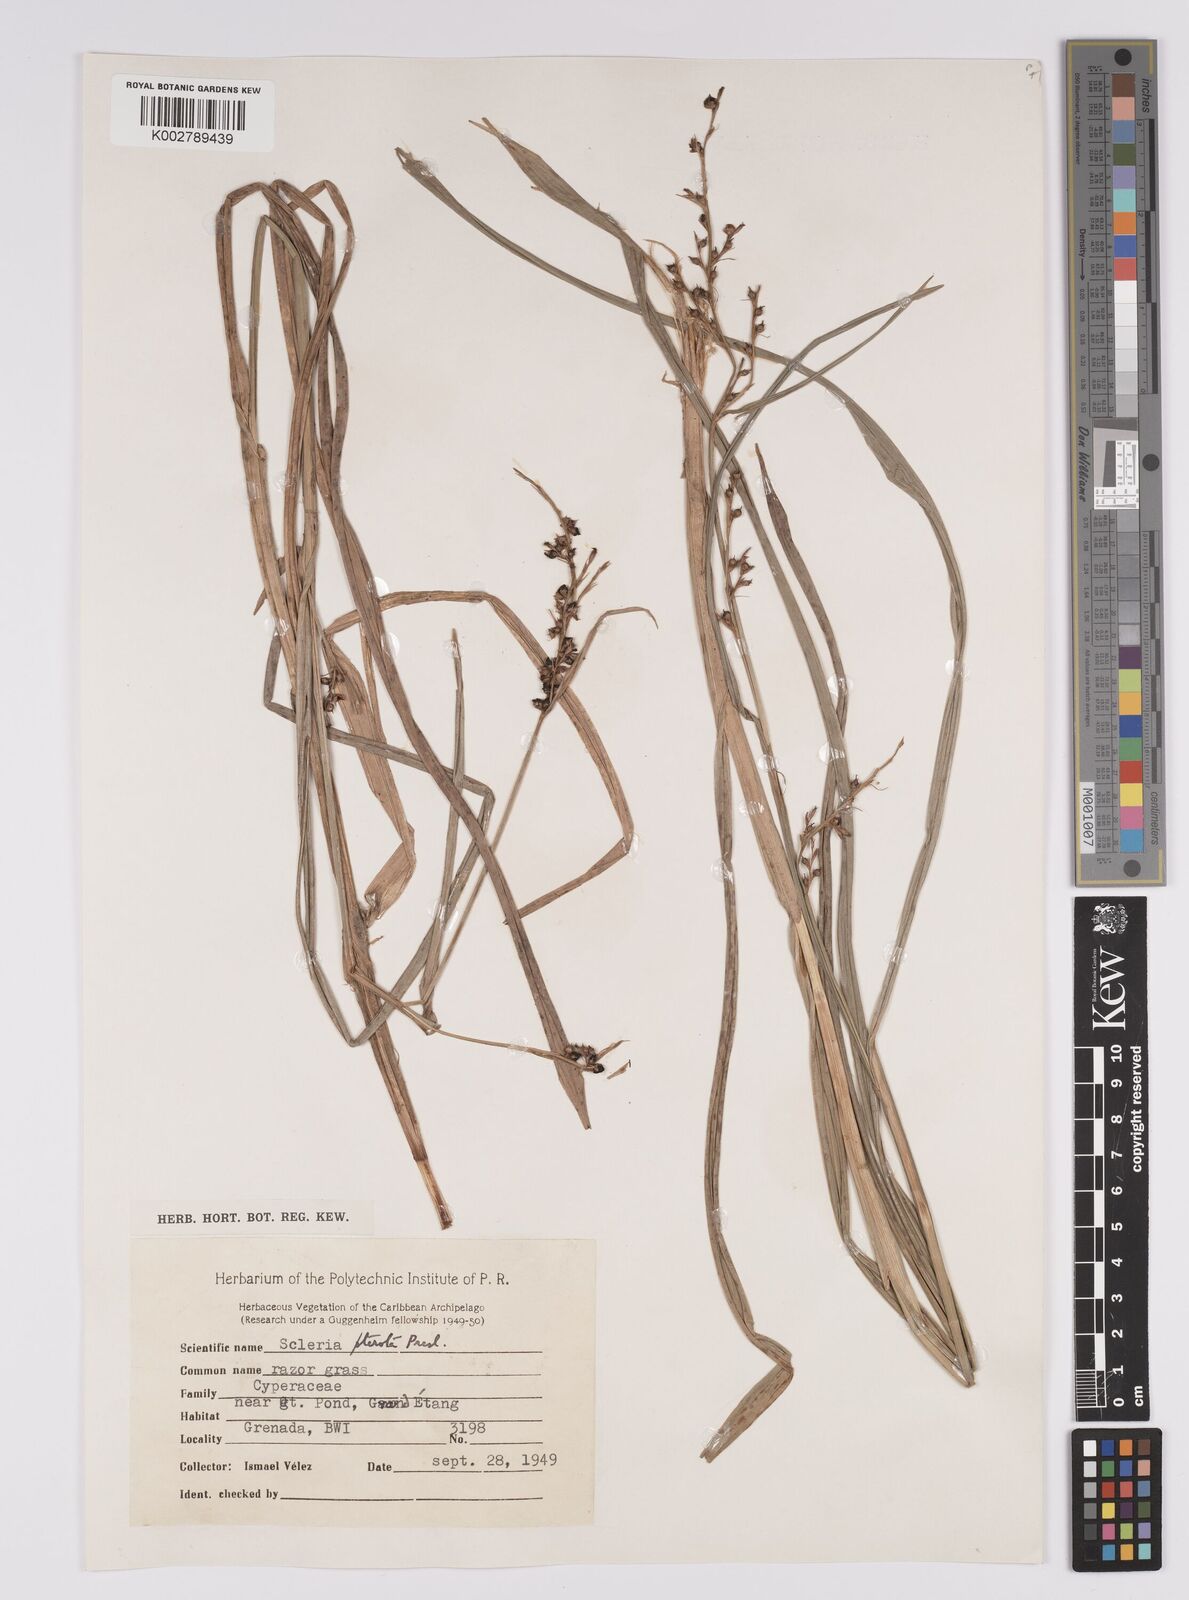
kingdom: Plantae
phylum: Tracheophyta
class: Liliopsida
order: Poales
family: Cyperaceae
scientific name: Cyperaceae
